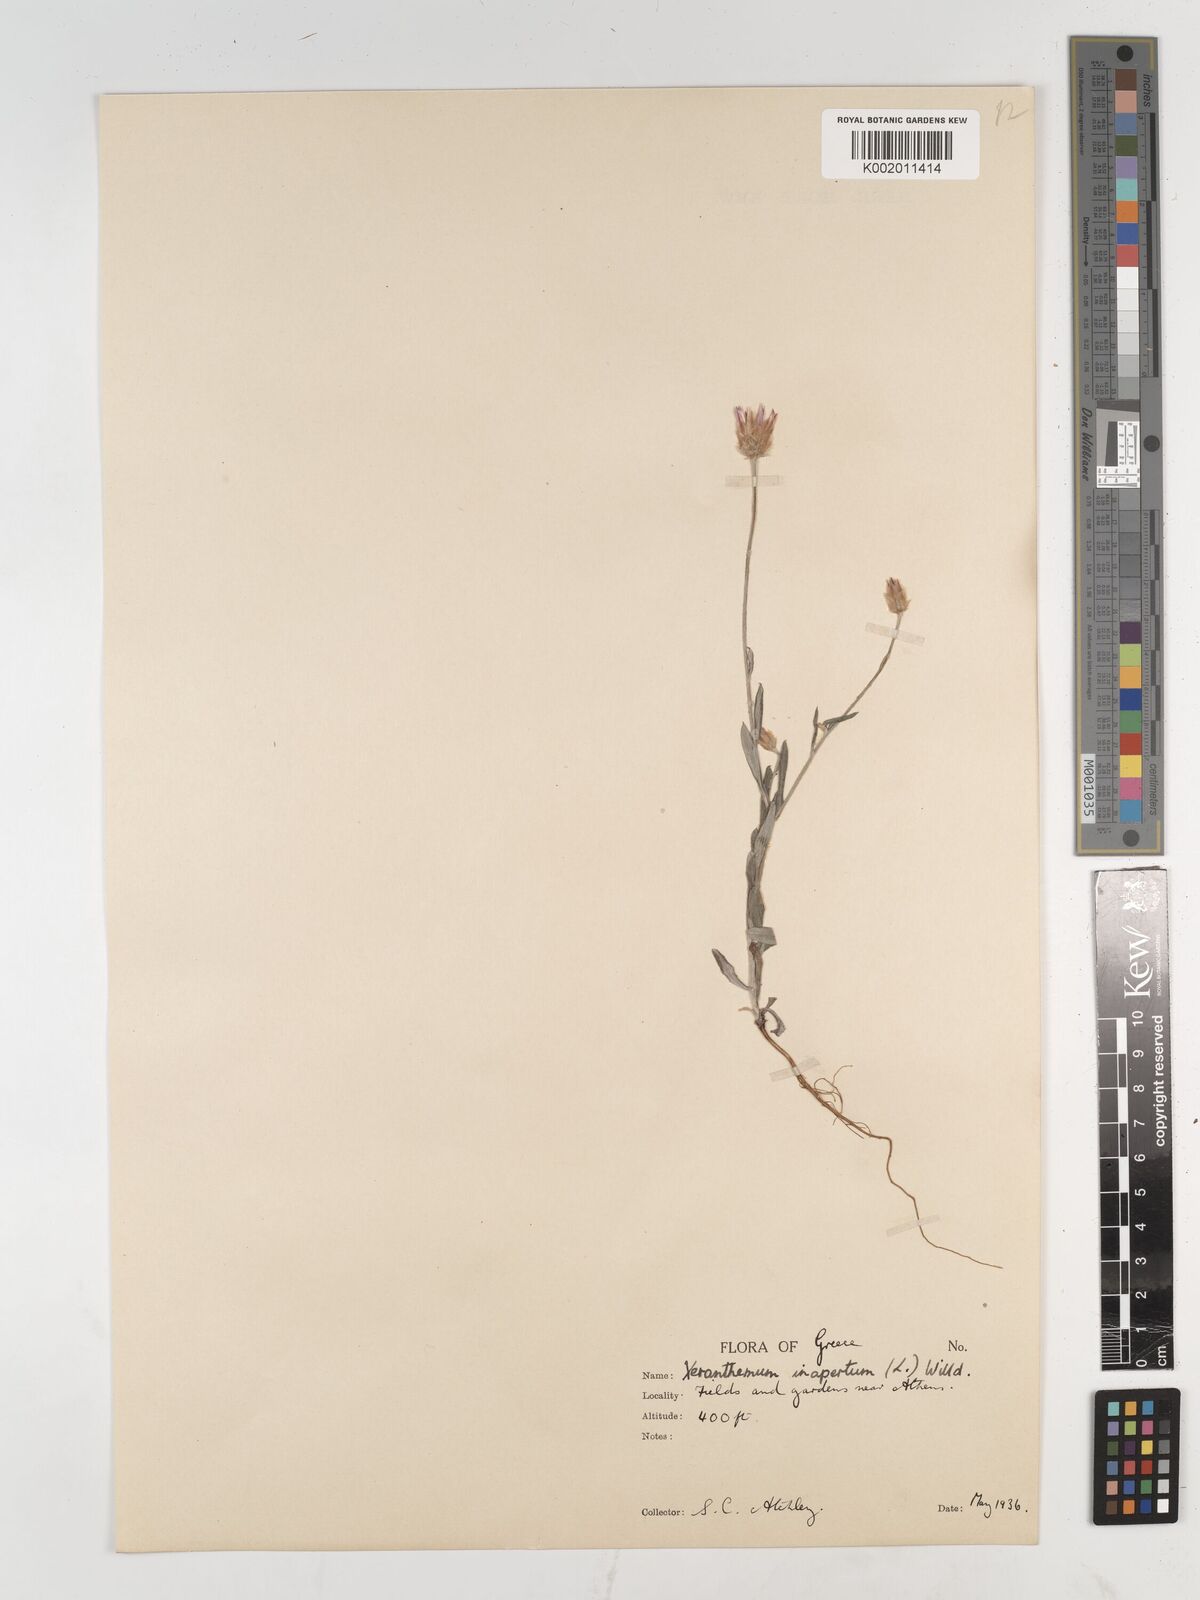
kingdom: Plantae
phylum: Tracheophyta
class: Magnoliopsida
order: Asterales
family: Asteraceae
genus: Xeranthemum
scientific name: Xeranthemum inapertum
